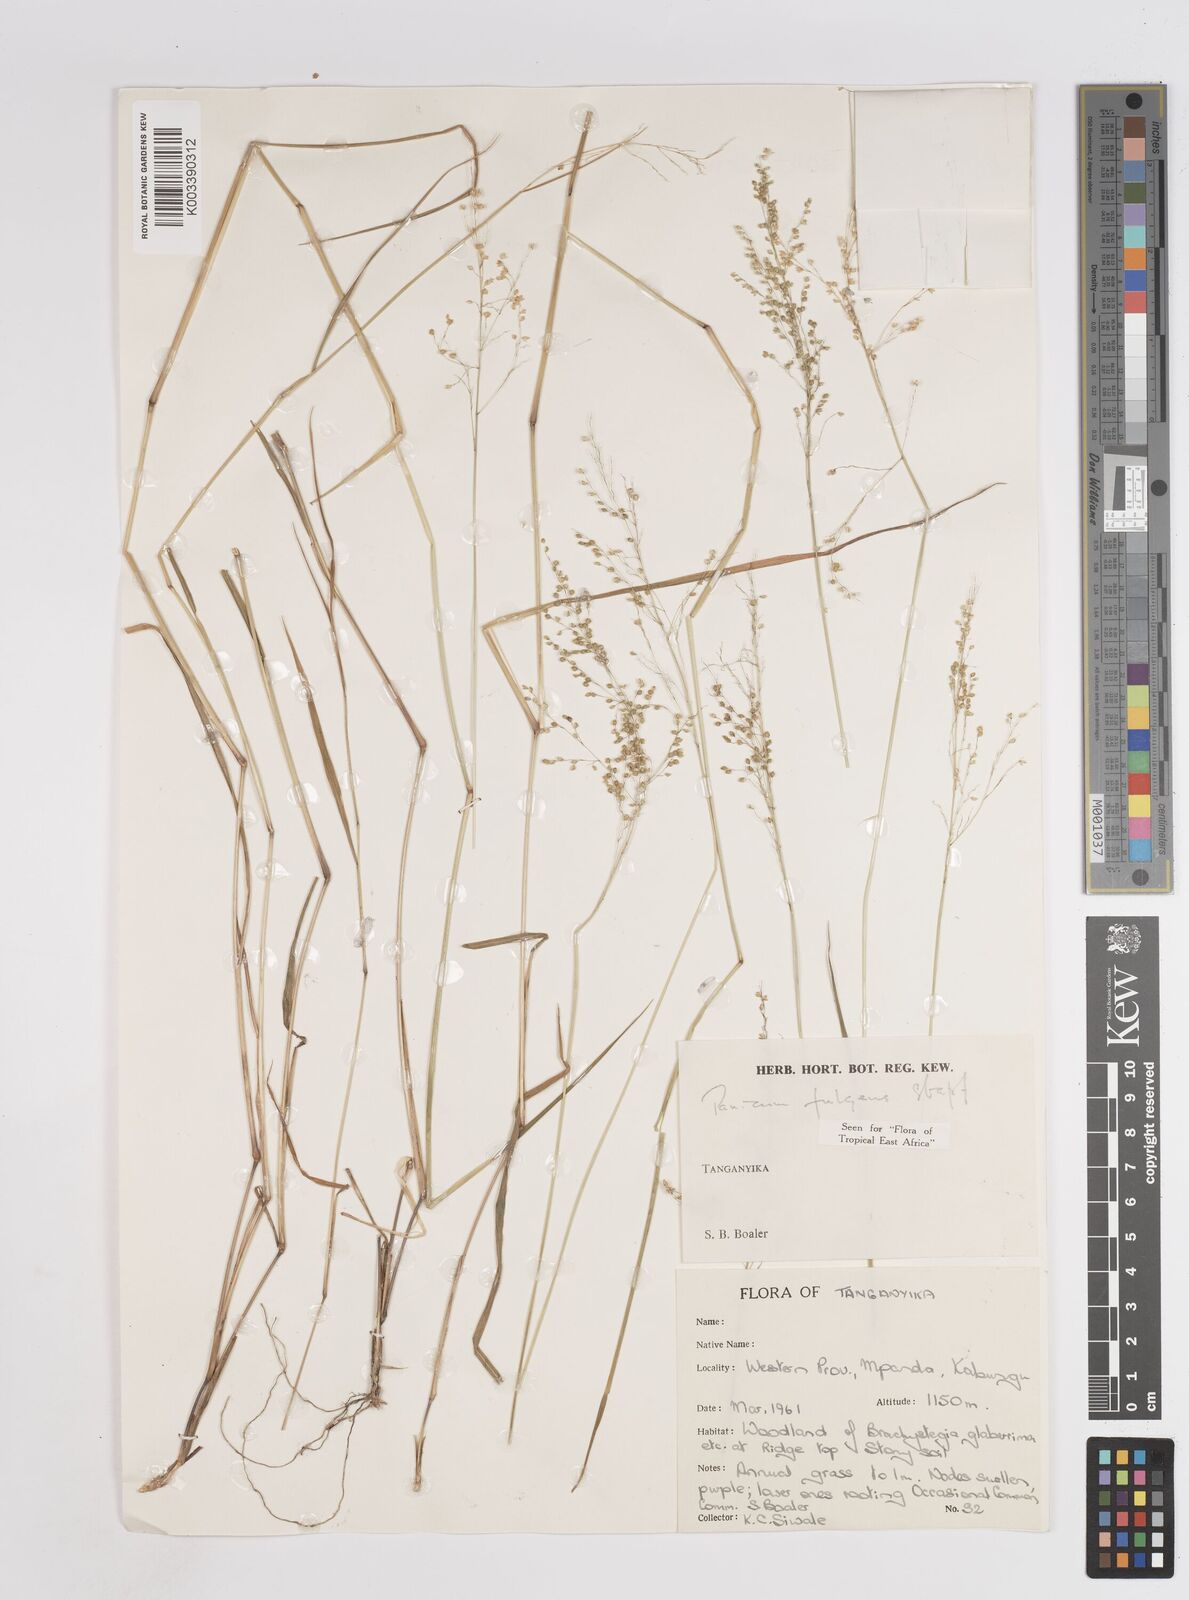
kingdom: Plantae
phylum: Tracheophyta
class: Liliopsida
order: Poales
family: Poaceae
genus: Trichanthecium
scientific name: Trichanthecium nervatum
